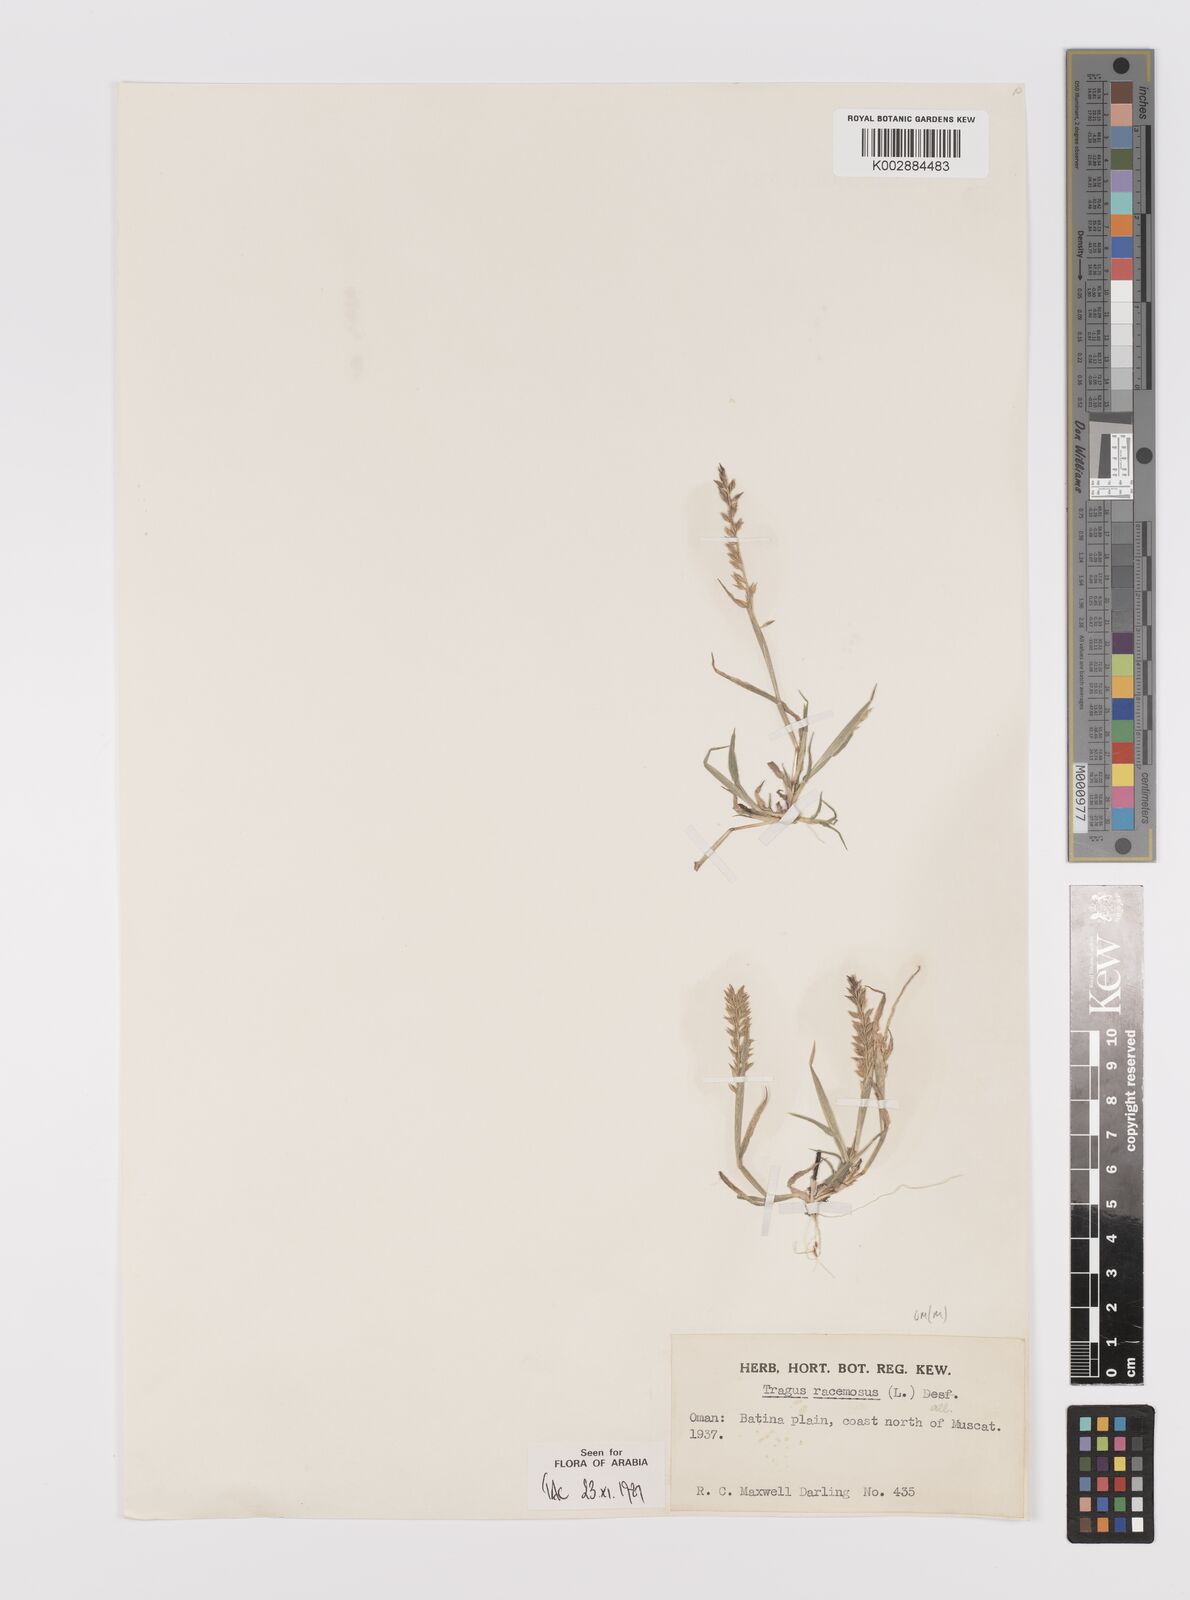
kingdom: Plantae
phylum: Tracheophyta
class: Liliopsida
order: Poales
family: Poaceae
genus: Tragus
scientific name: Tragus racemosus
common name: European bur-grass
